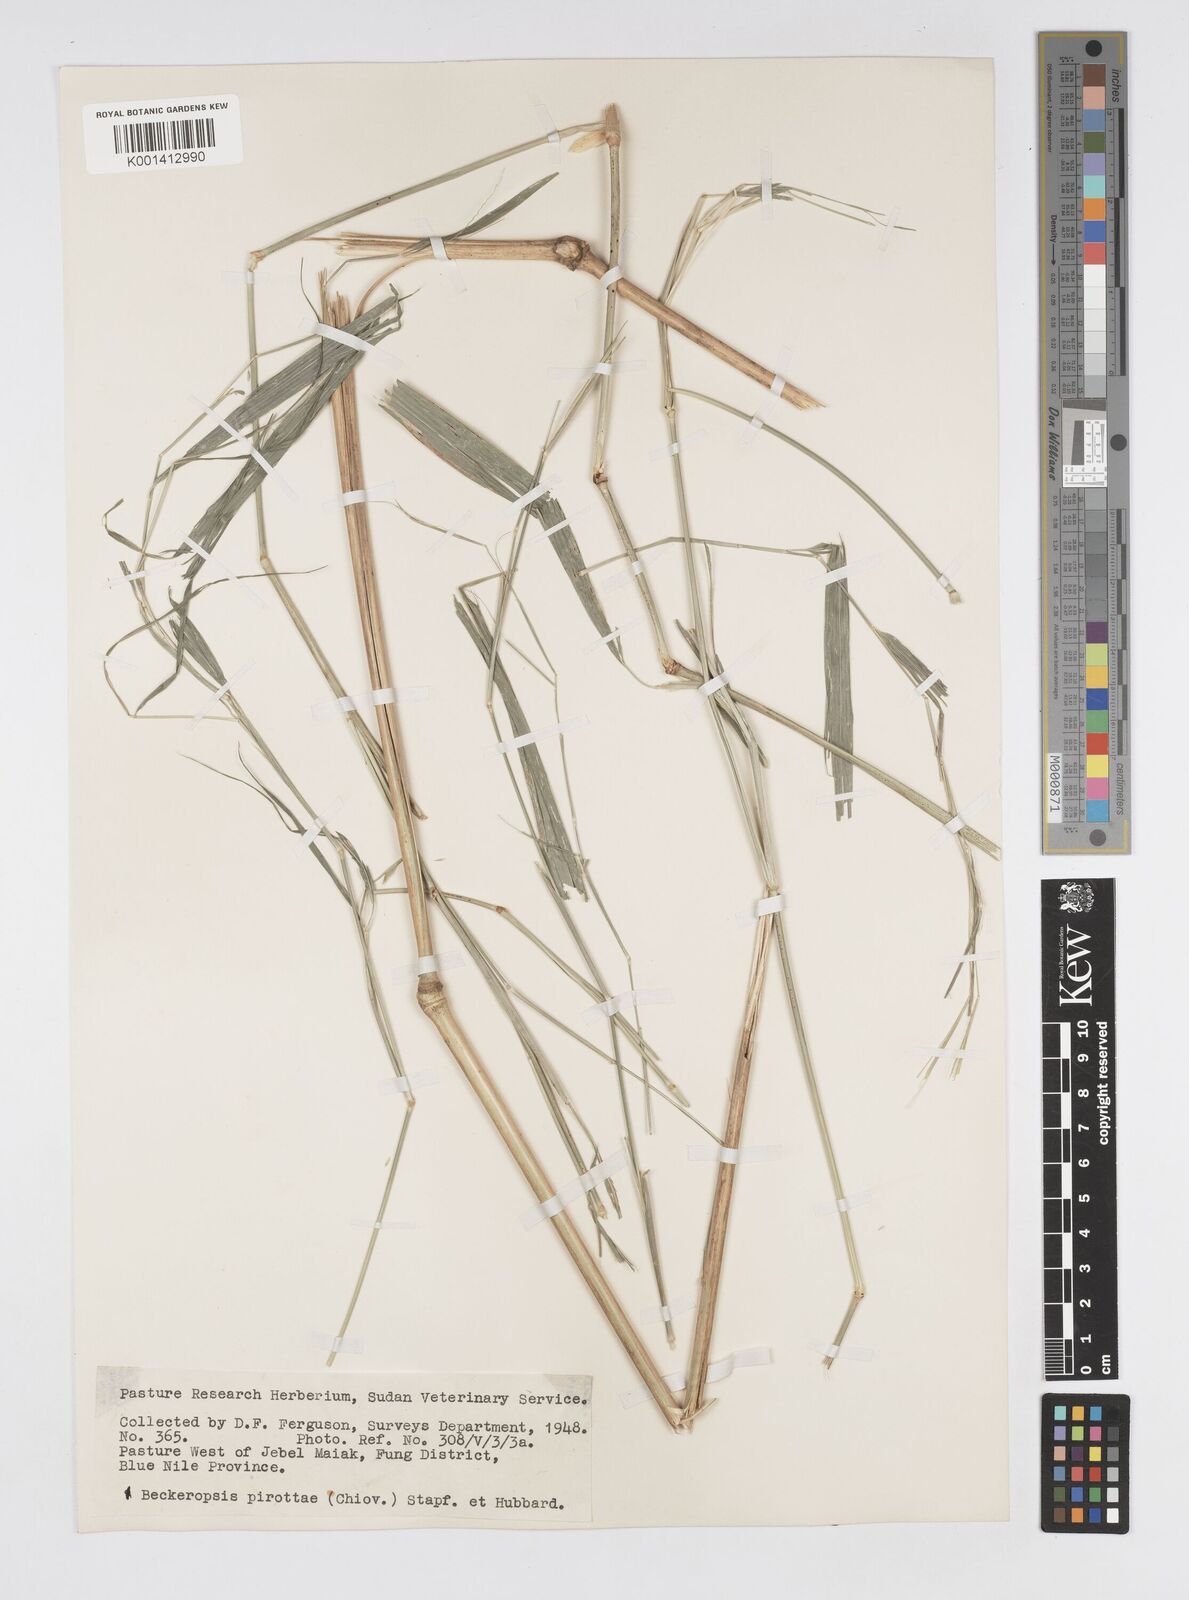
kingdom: Plantae
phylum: Tracheophyta
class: Liliopsida
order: Poales
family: Poaceae
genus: Cenchrus
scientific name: Cenchrus pirottae
